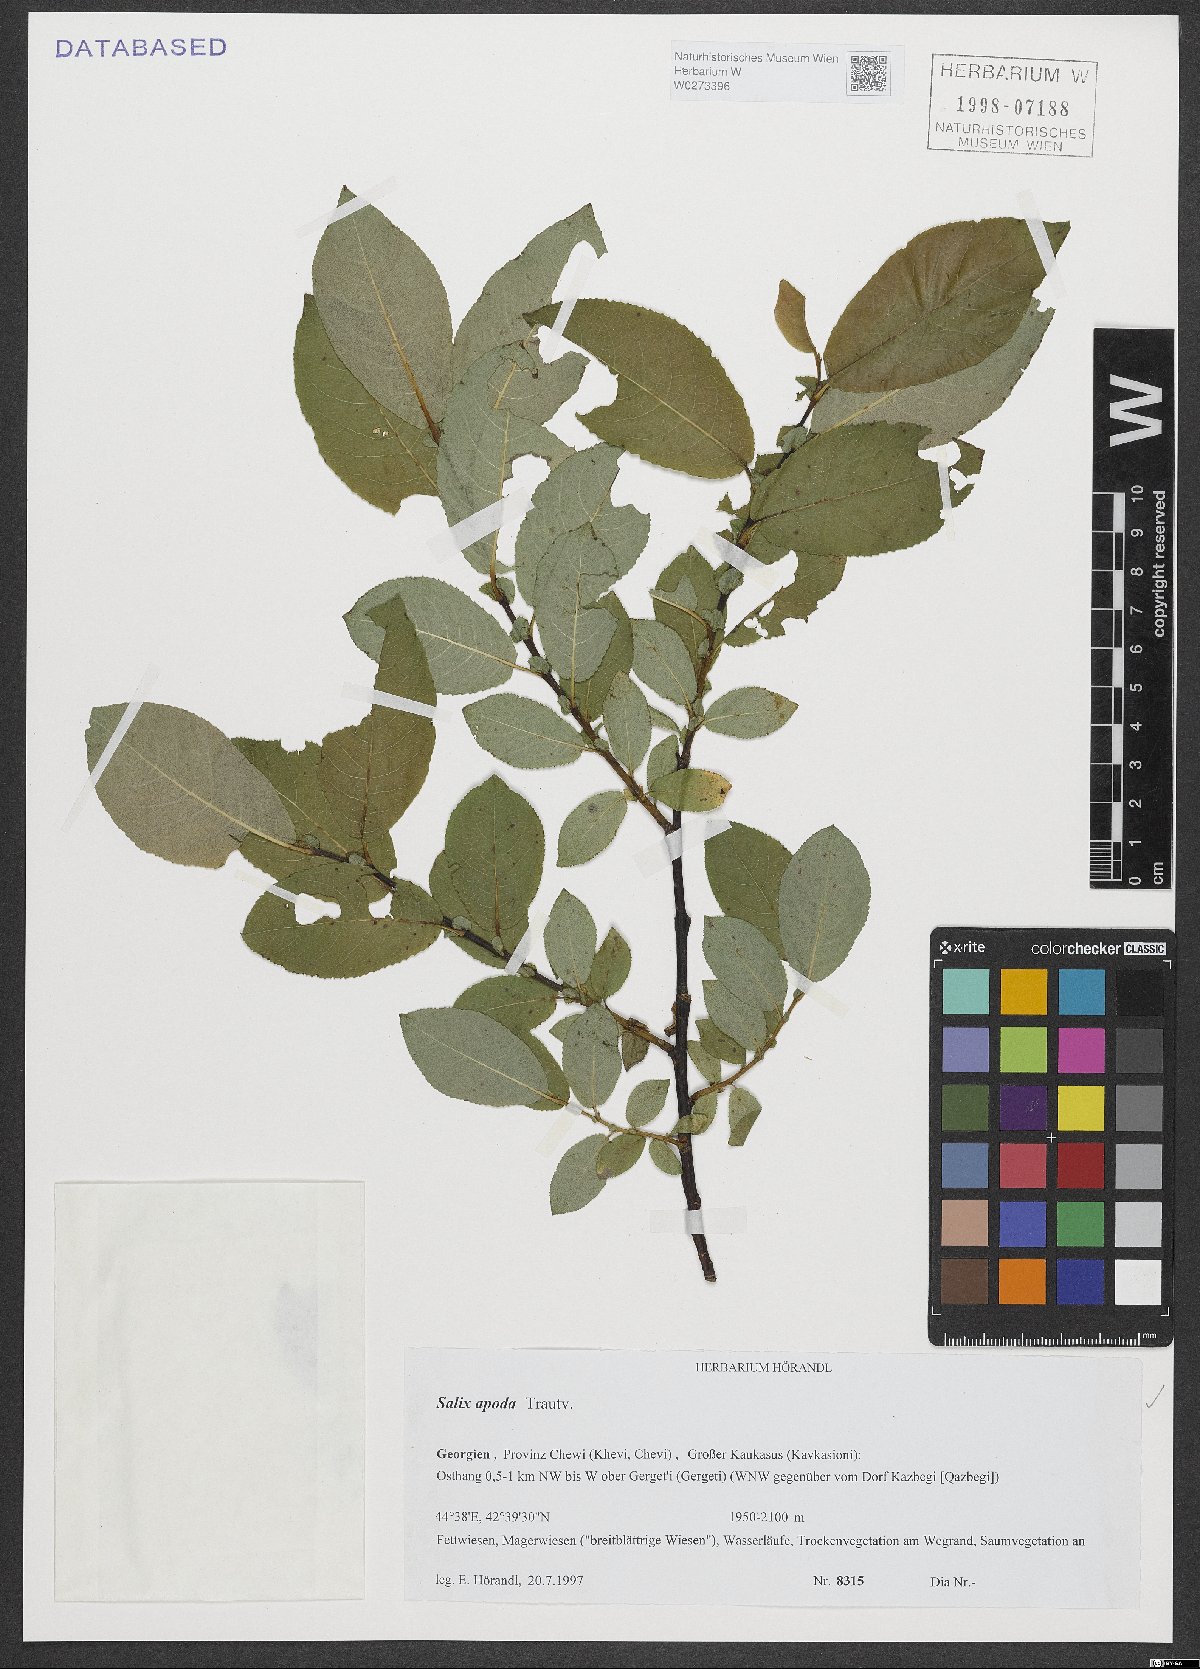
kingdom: Plantae
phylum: Tracheophyta
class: Magnoliopsida
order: Malpighiales
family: Salicaceae
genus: Salix
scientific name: Salix apoda
